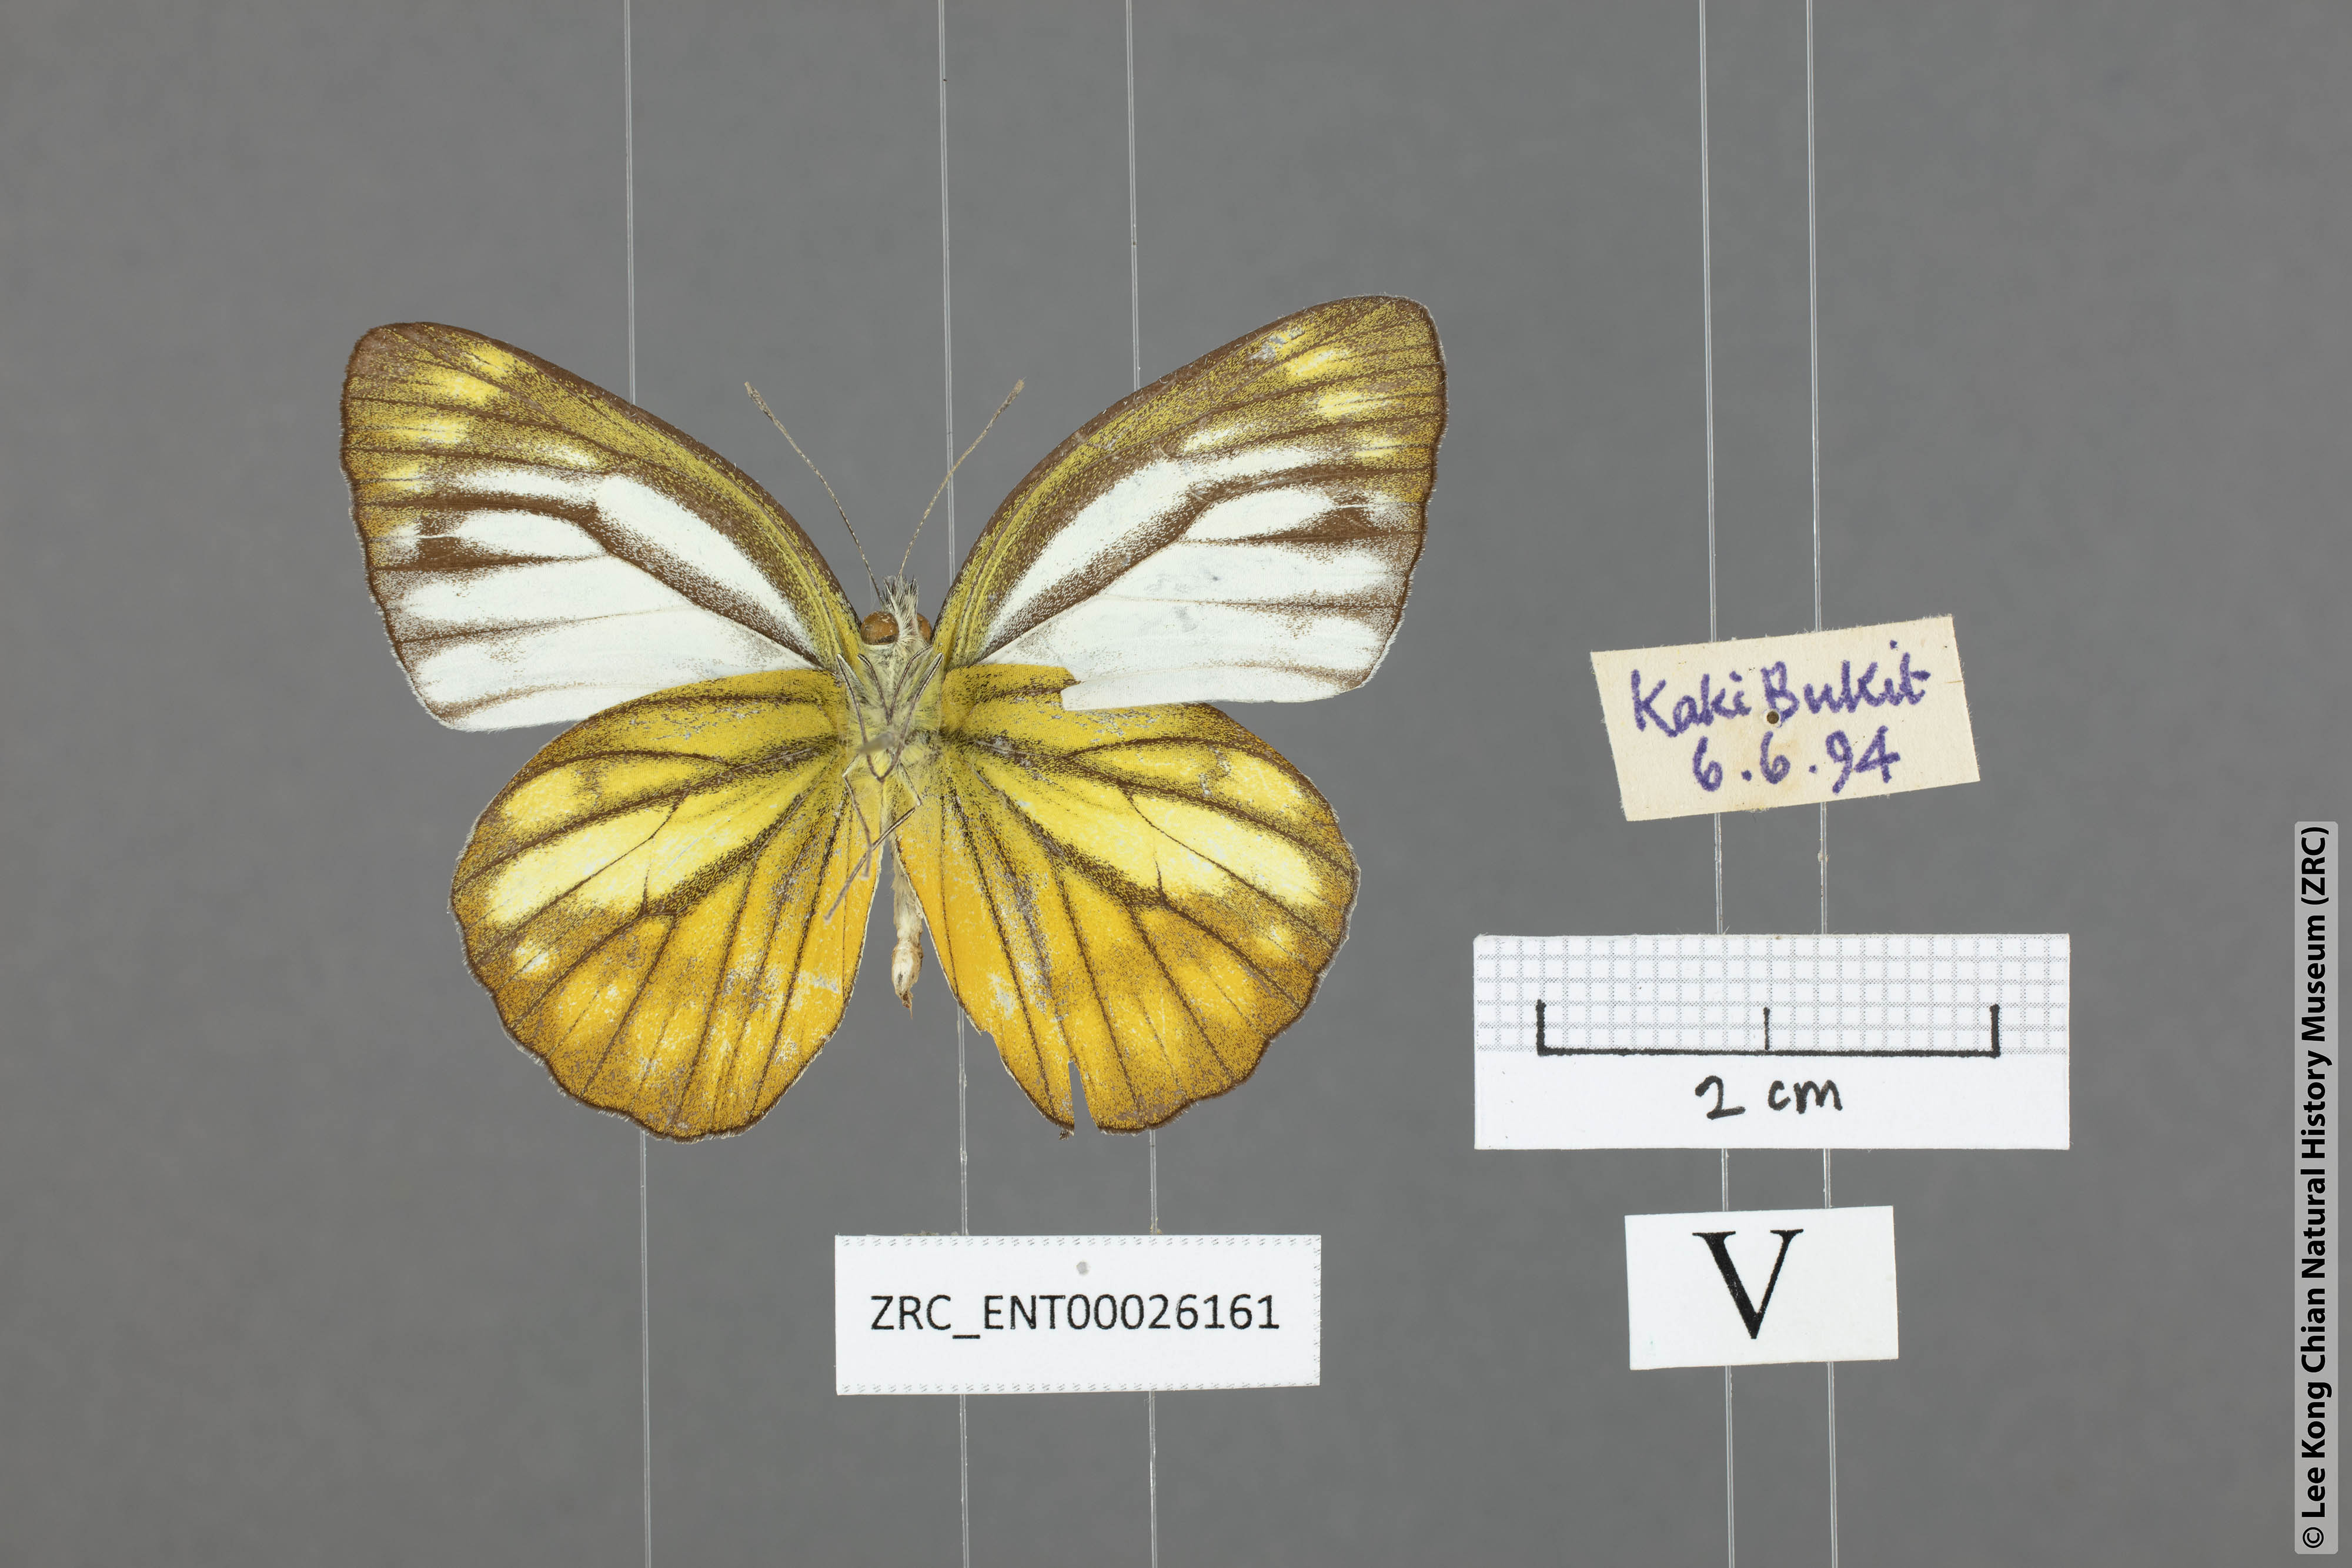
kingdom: Animalia
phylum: Arthropoda
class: Insecta
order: Lepidoptera
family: Pieridae
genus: Cepora
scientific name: Cepora nerissa
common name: Common gull
